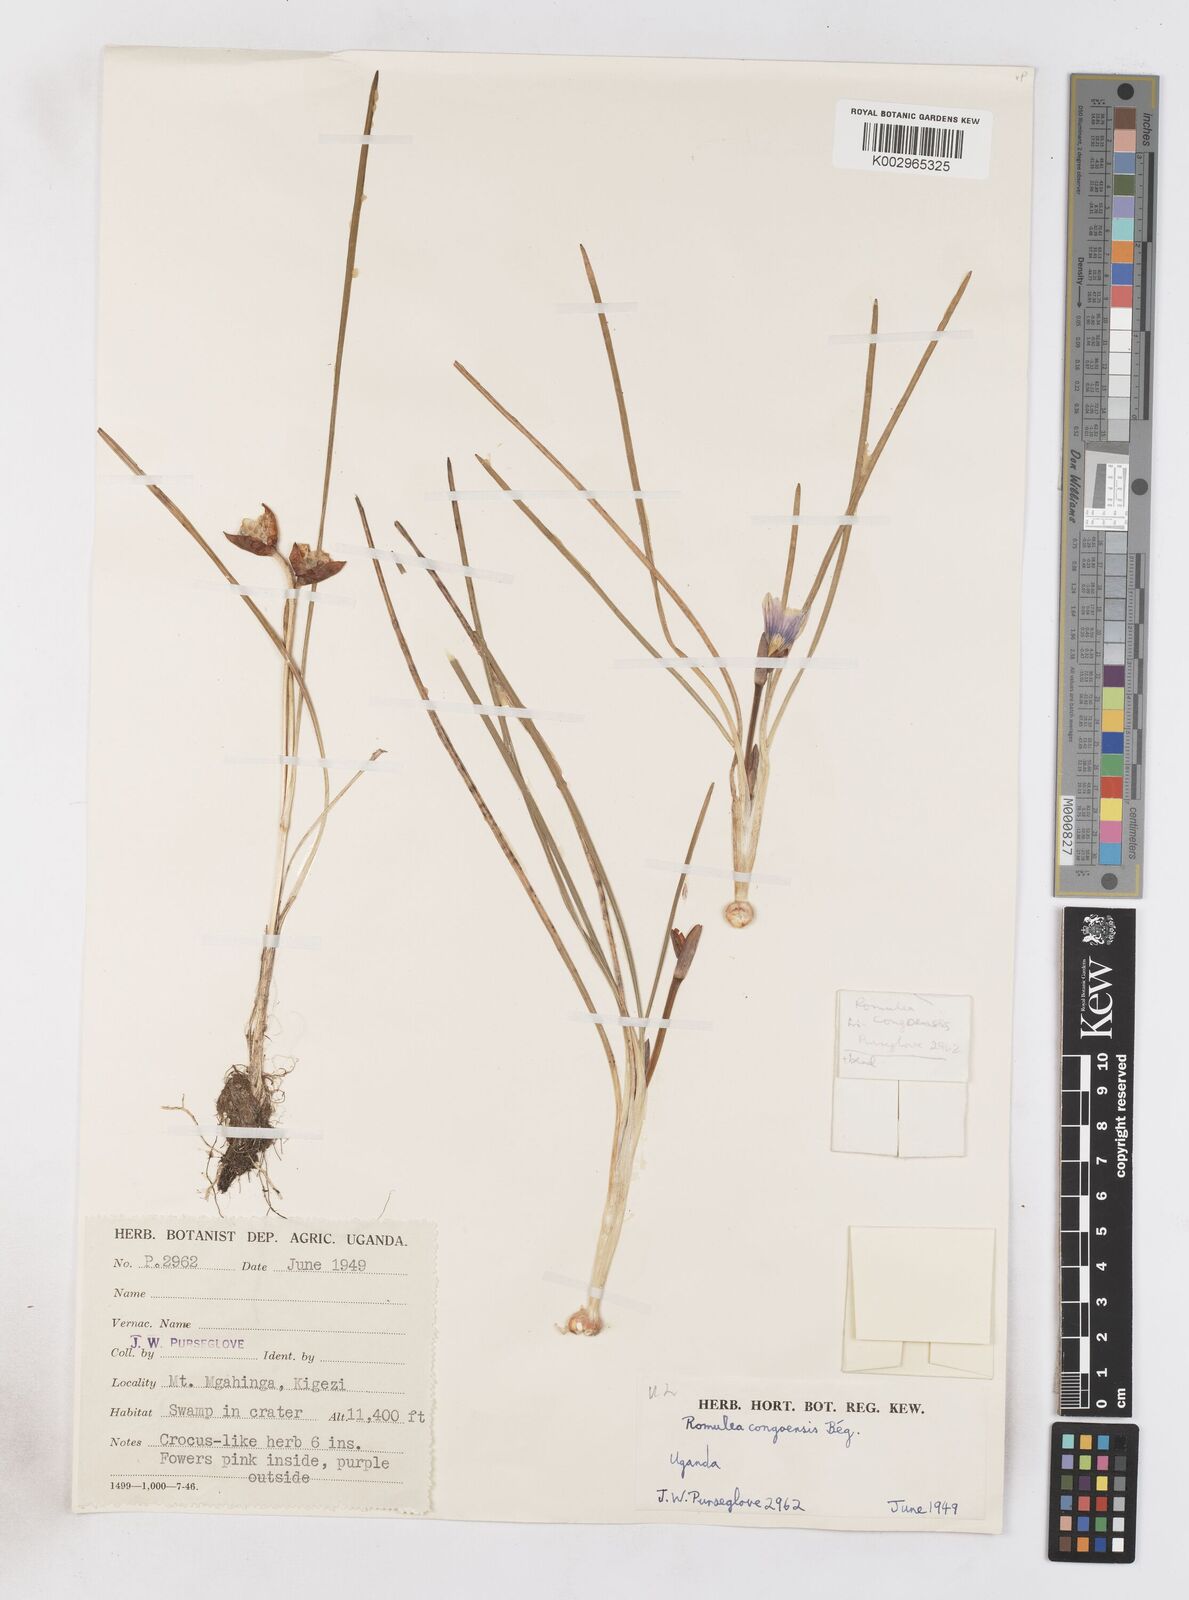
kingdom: Plantae
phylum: Tracheophyta
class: Liliopsida
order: Asparagales
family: Iridaceae
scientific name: Iridaceae
